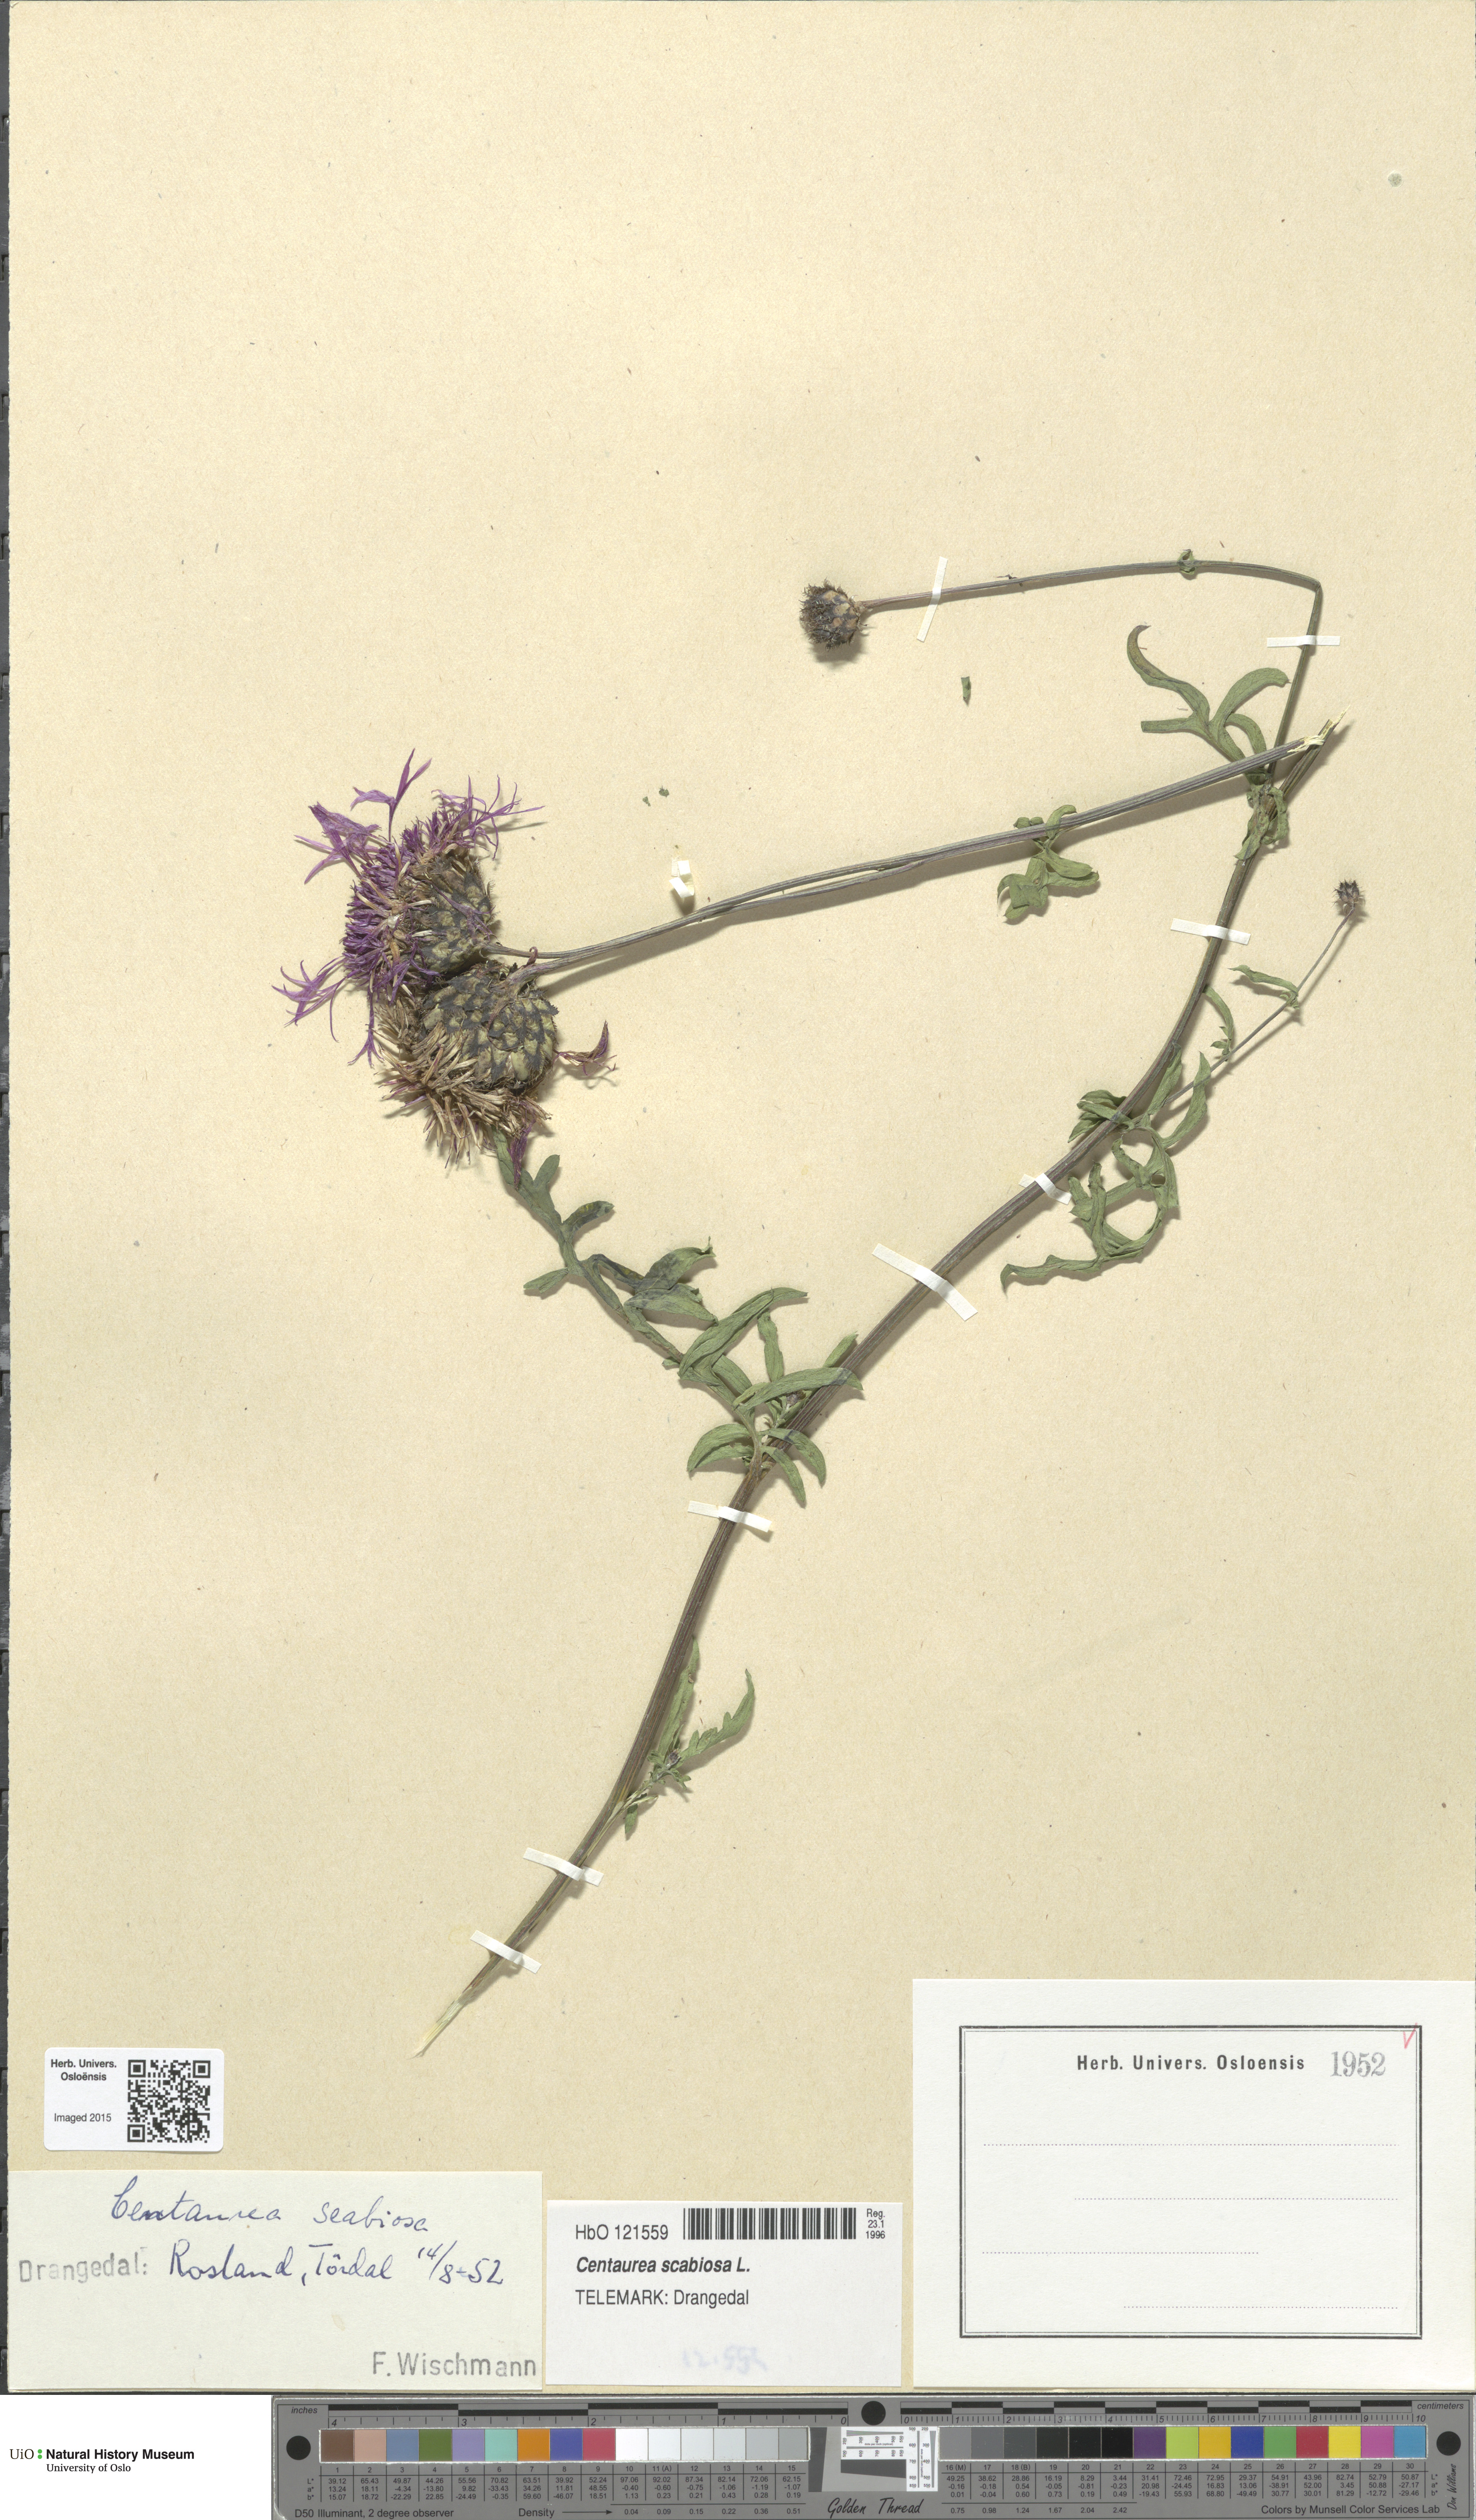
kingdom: Plantae
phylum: Tracheophyta
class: Magnoliopsida
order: Asterales
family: Asteraceae
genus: Centaurea
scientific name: Centaurea scabiosa
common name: Greater knapweed
